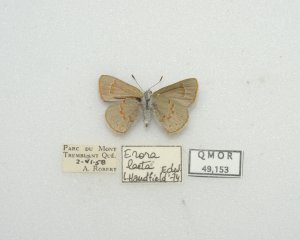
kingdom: Animalia
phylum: Arthropoda
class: Insecta
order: Lepidoptera
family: Lycaenidae
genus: Erora
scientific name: Erora laeta
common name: Early Hairstreak
